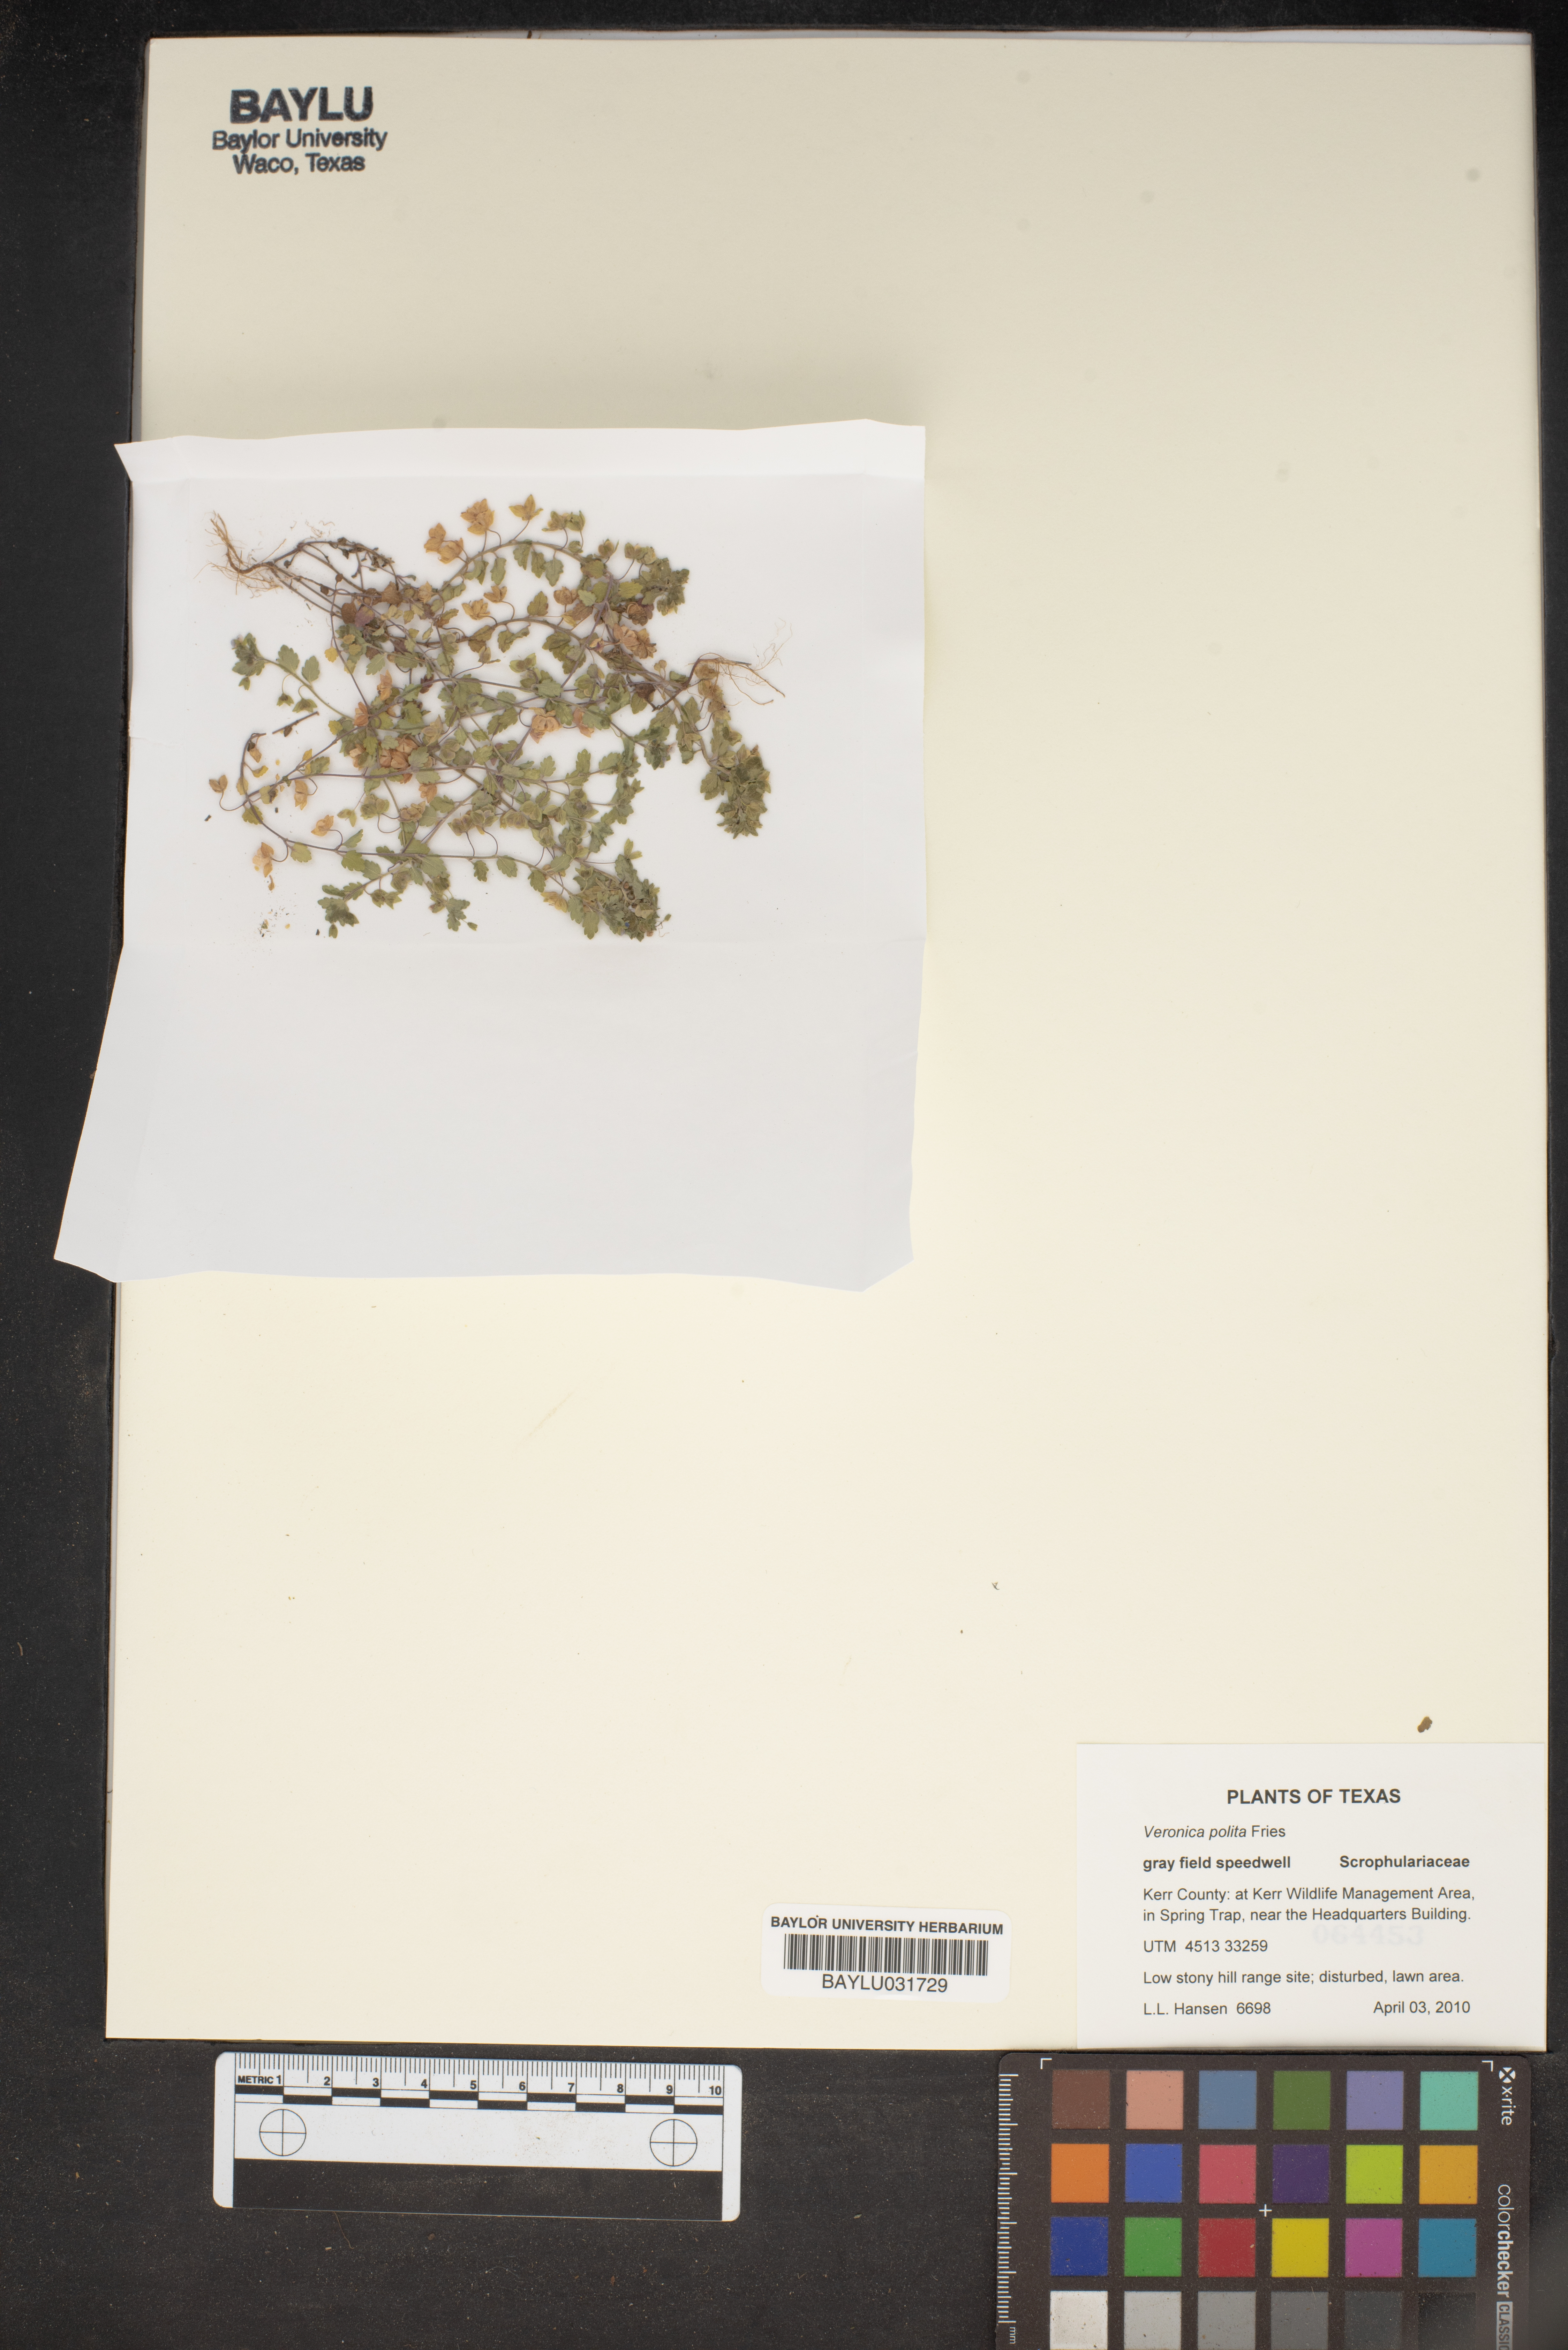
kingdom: Plantae
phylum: Tracheophyta
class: Magnoliopsida
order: Lamiales
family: Plantaginaceae
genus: Veronica
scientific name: Veronica polita
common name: Grey field-speedwell
